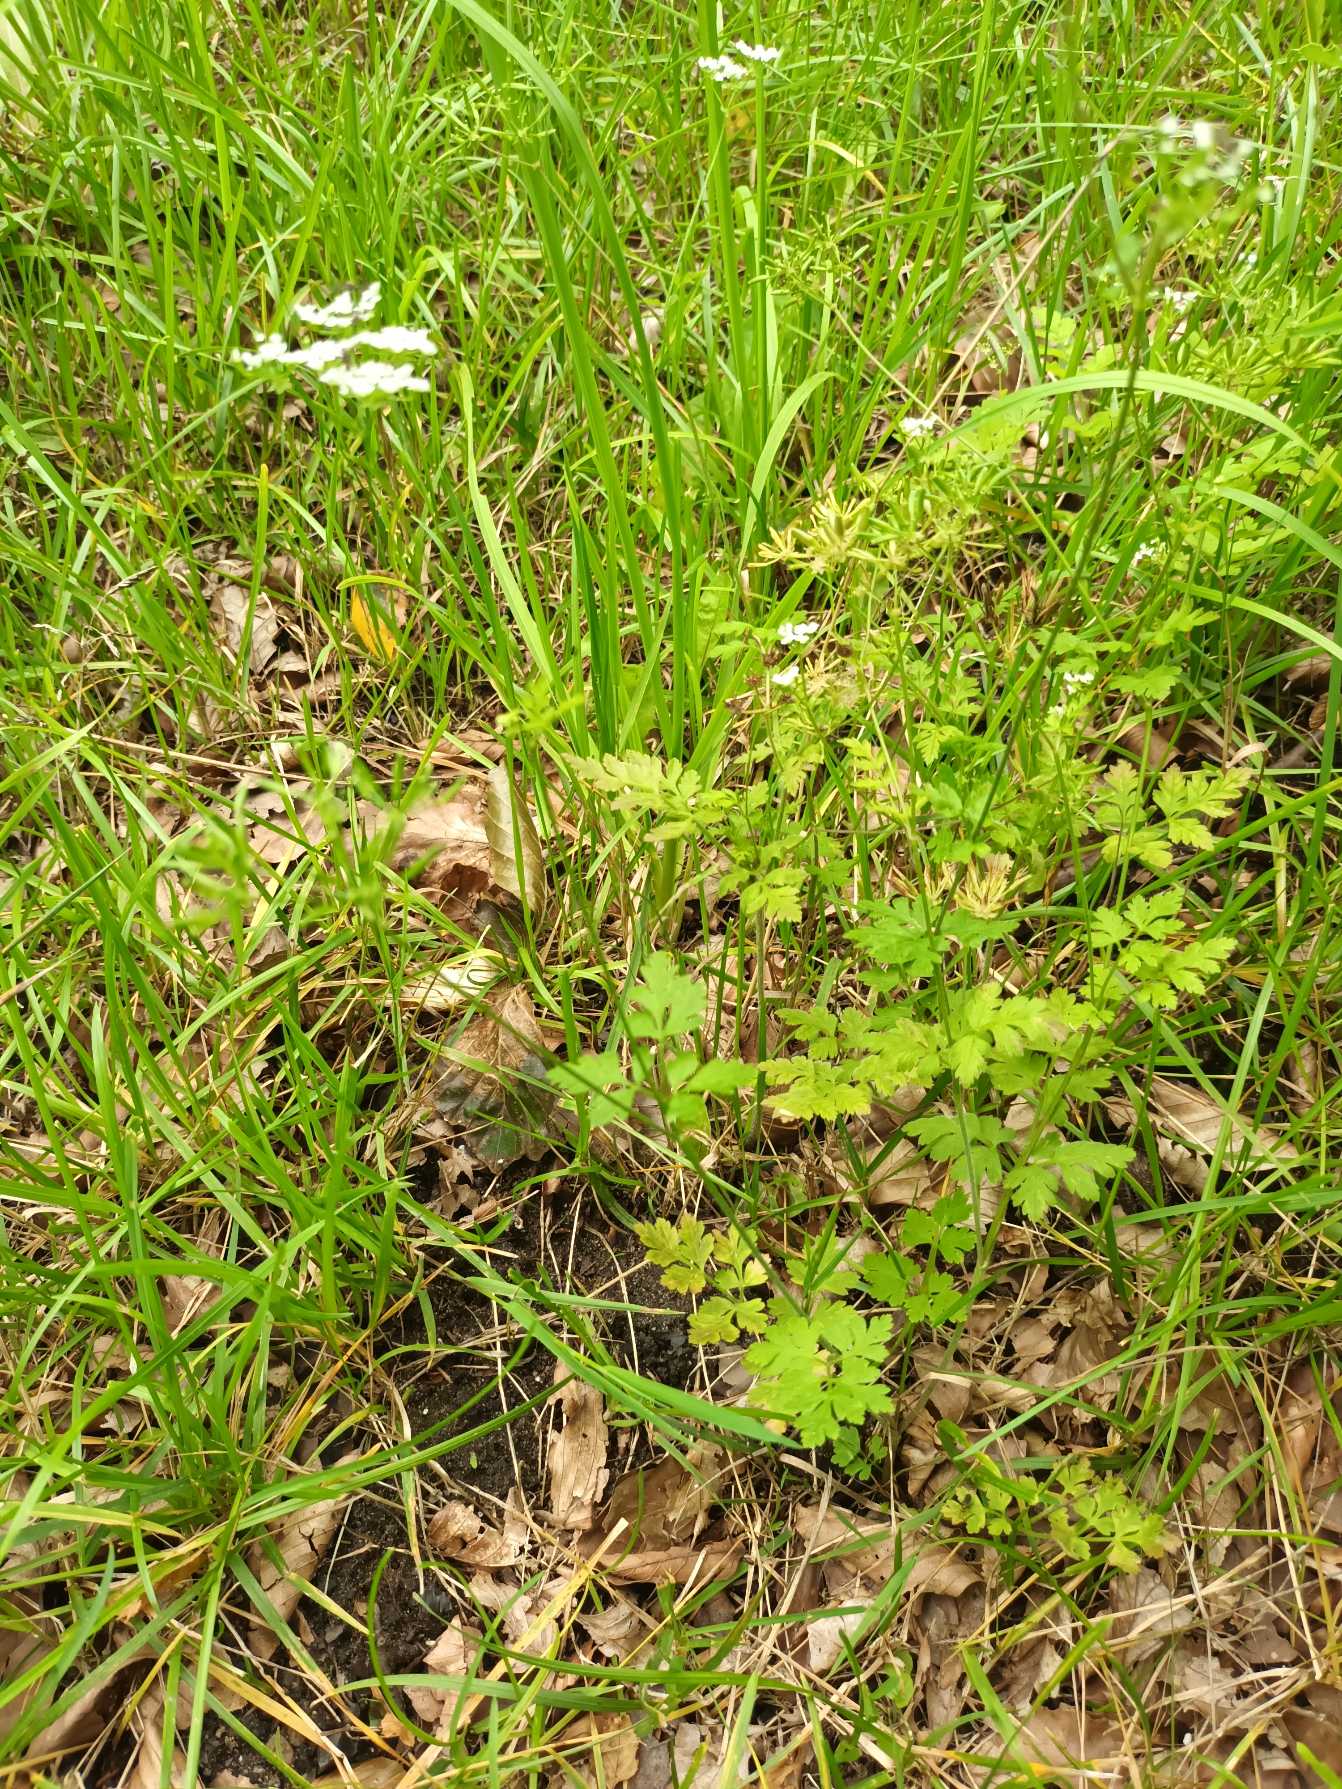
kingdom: Plantae
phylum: Tracheophyta
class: Magnoliopsida
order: Apiales
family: Apiaceae
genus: Chaerophyllum
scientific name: Chaerophyllum temulum
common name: Almindelig hulsvøb
